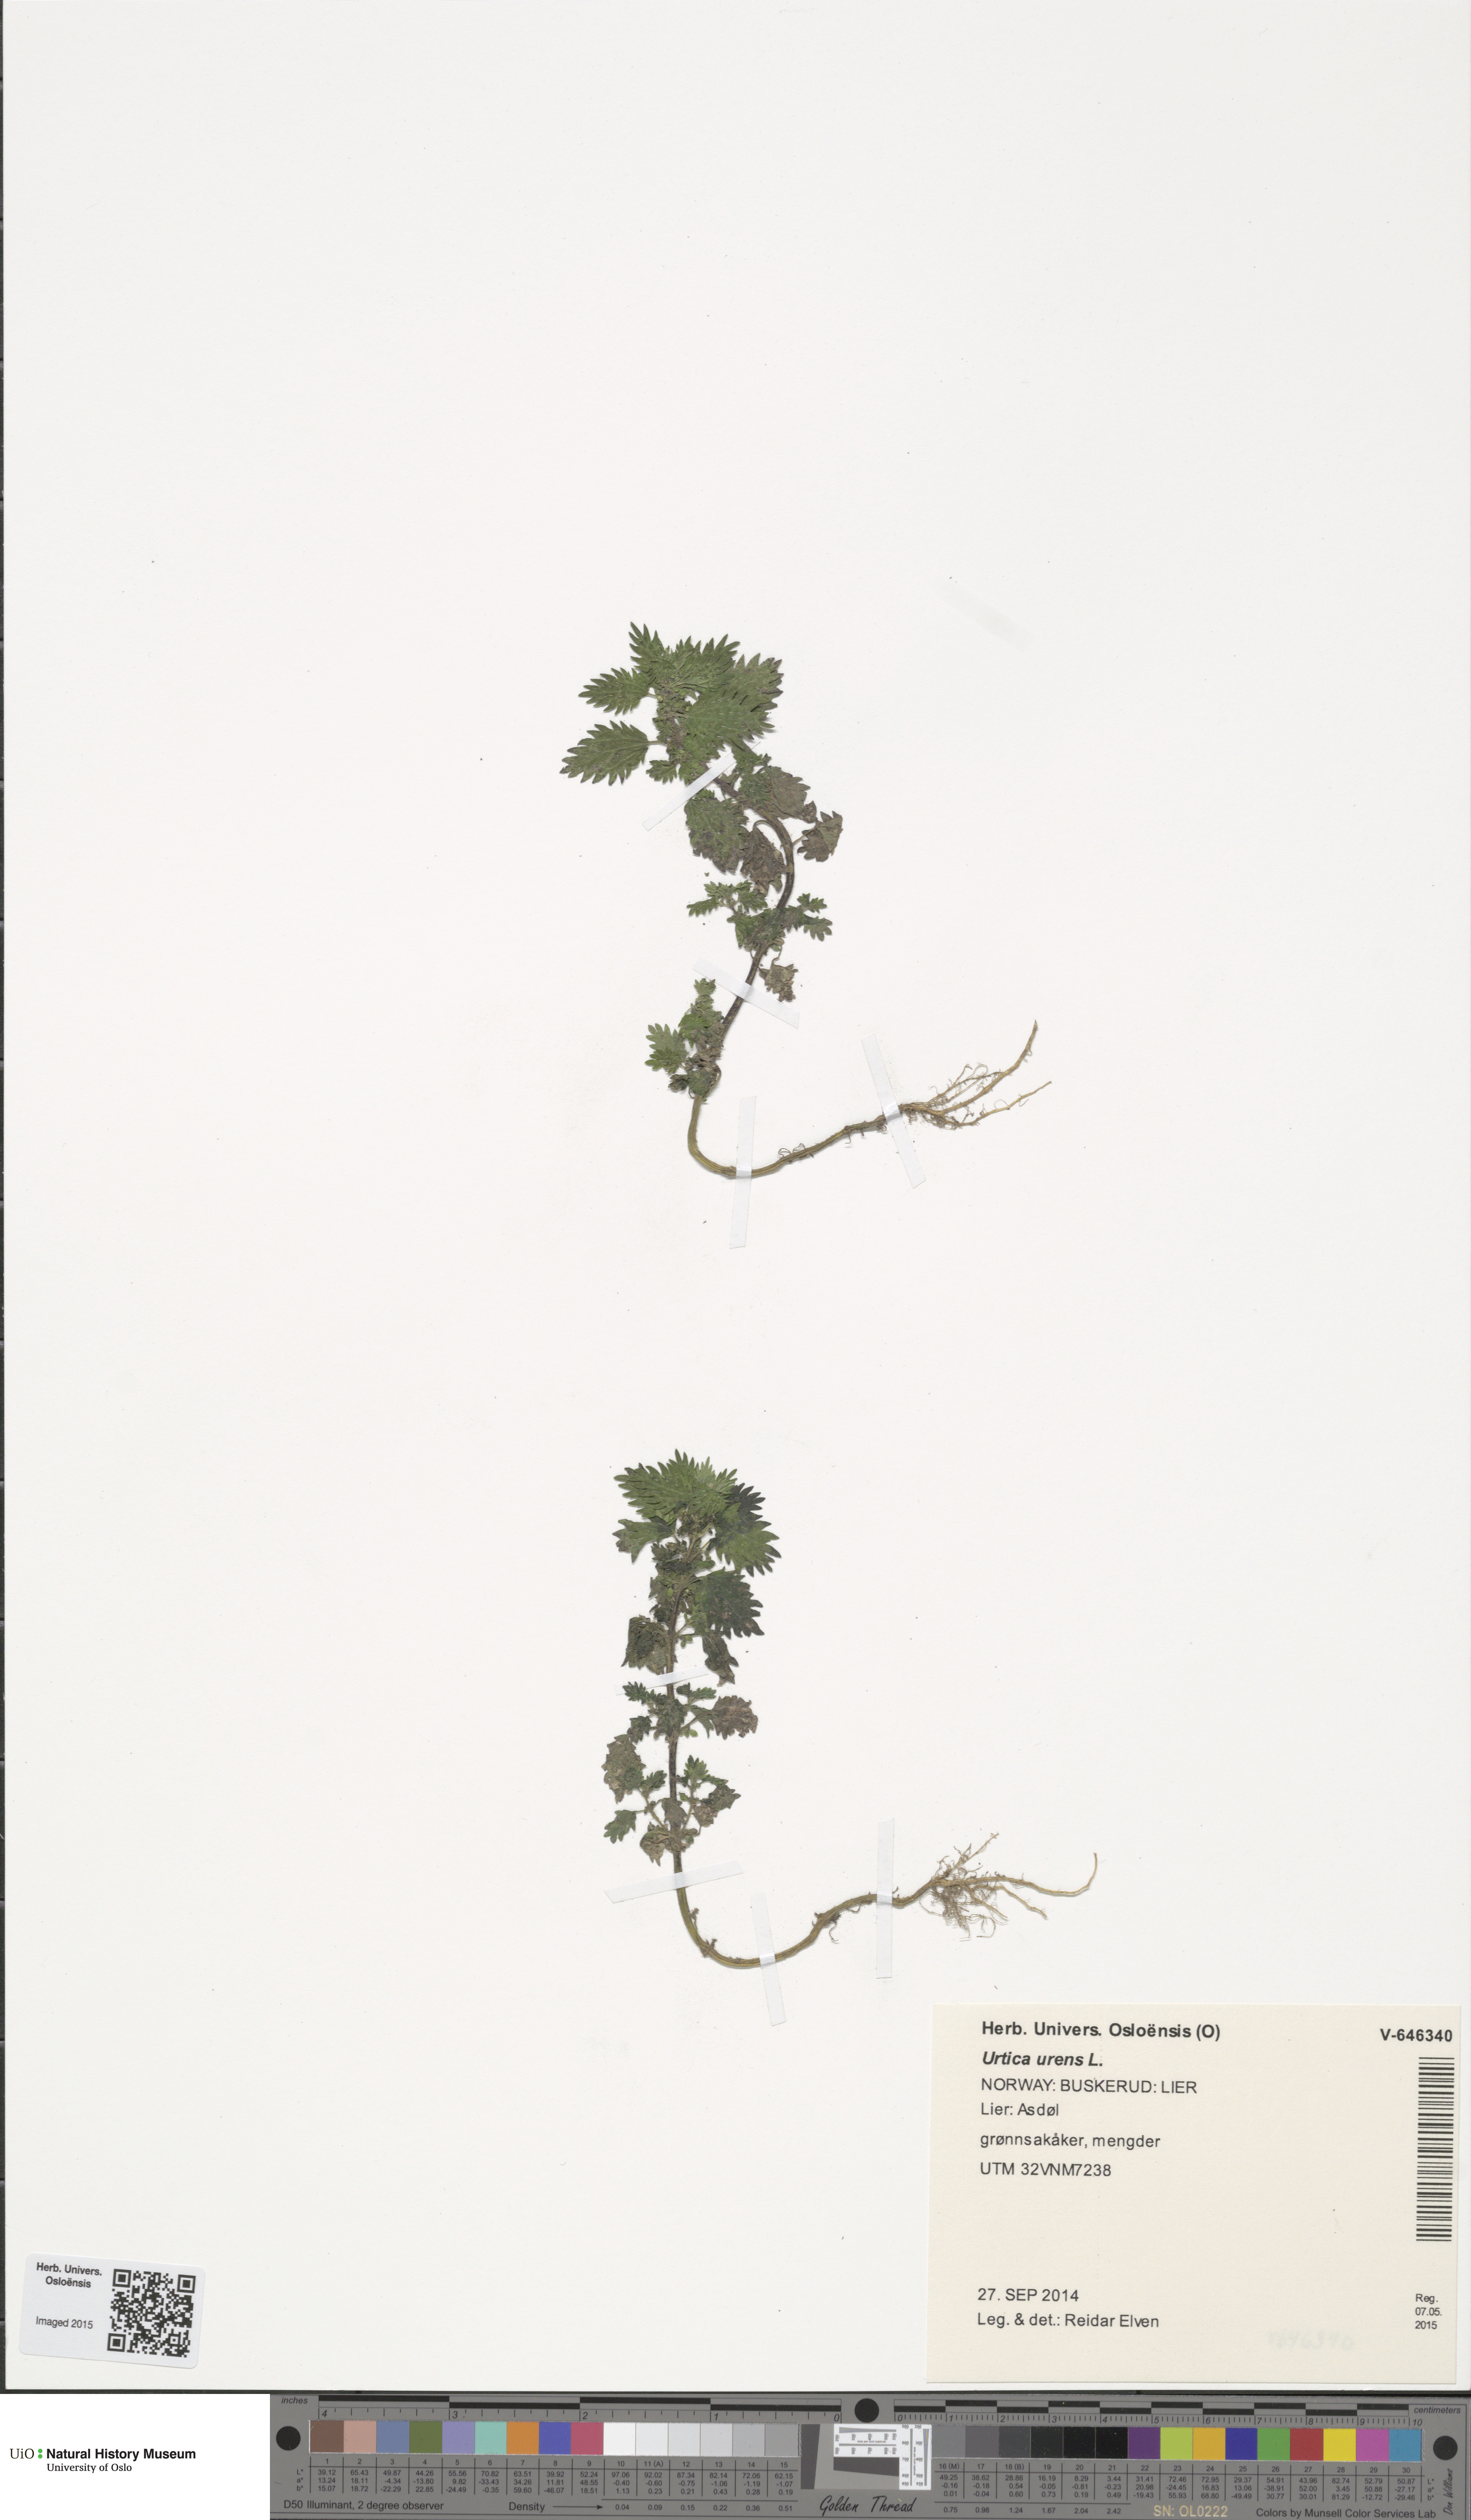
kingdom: Plantae
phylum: Tracheophyta
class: Magnoliopsida
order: Rosales
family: Urticaceae
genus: Urtica
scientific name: Urtica urens
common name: Dwarf nettle
